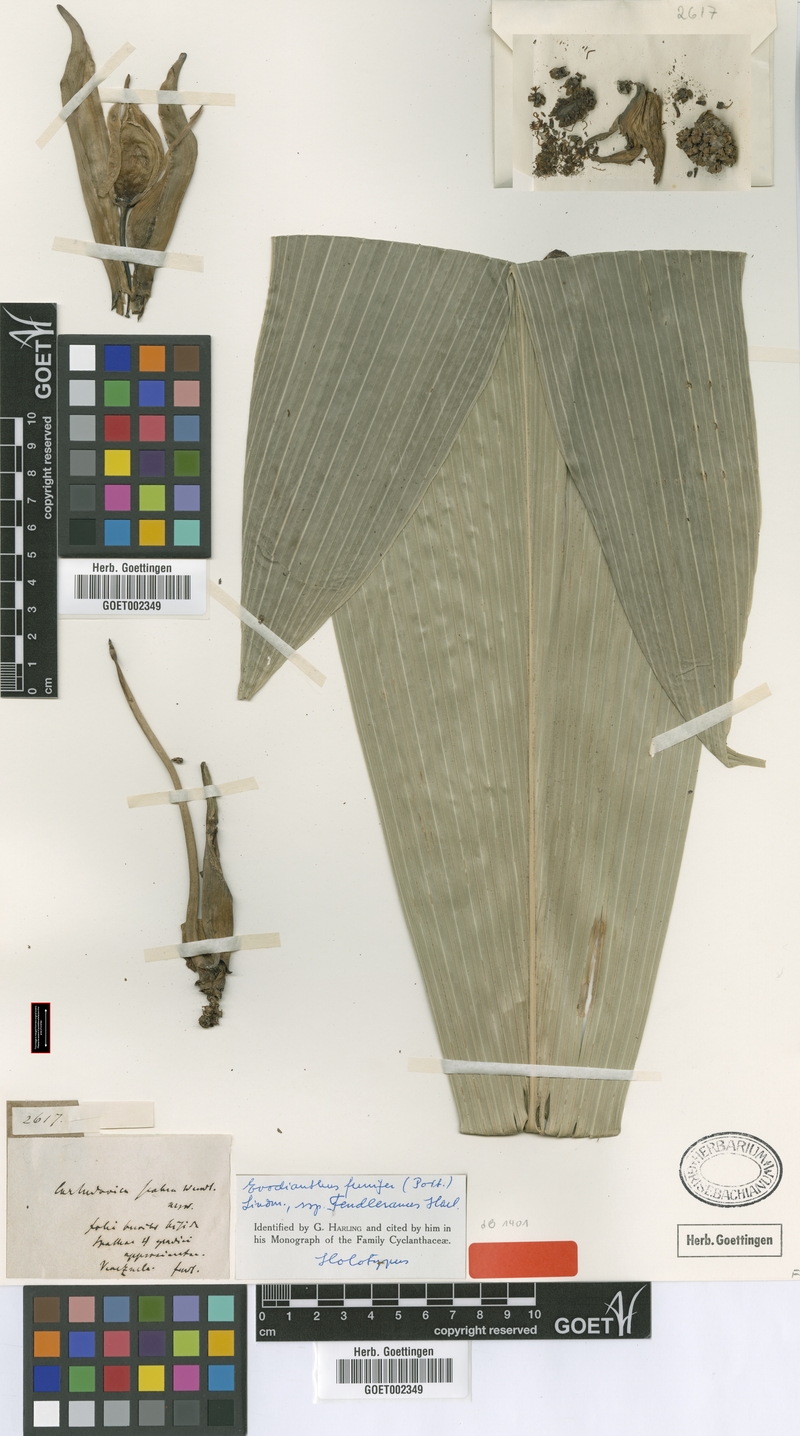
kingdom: Plantae
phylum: Tracheophyta
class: Liliopsida
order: Pandanales
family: Cyclanthaceae
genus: Evodianthus
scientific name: Evodianthus funifer
